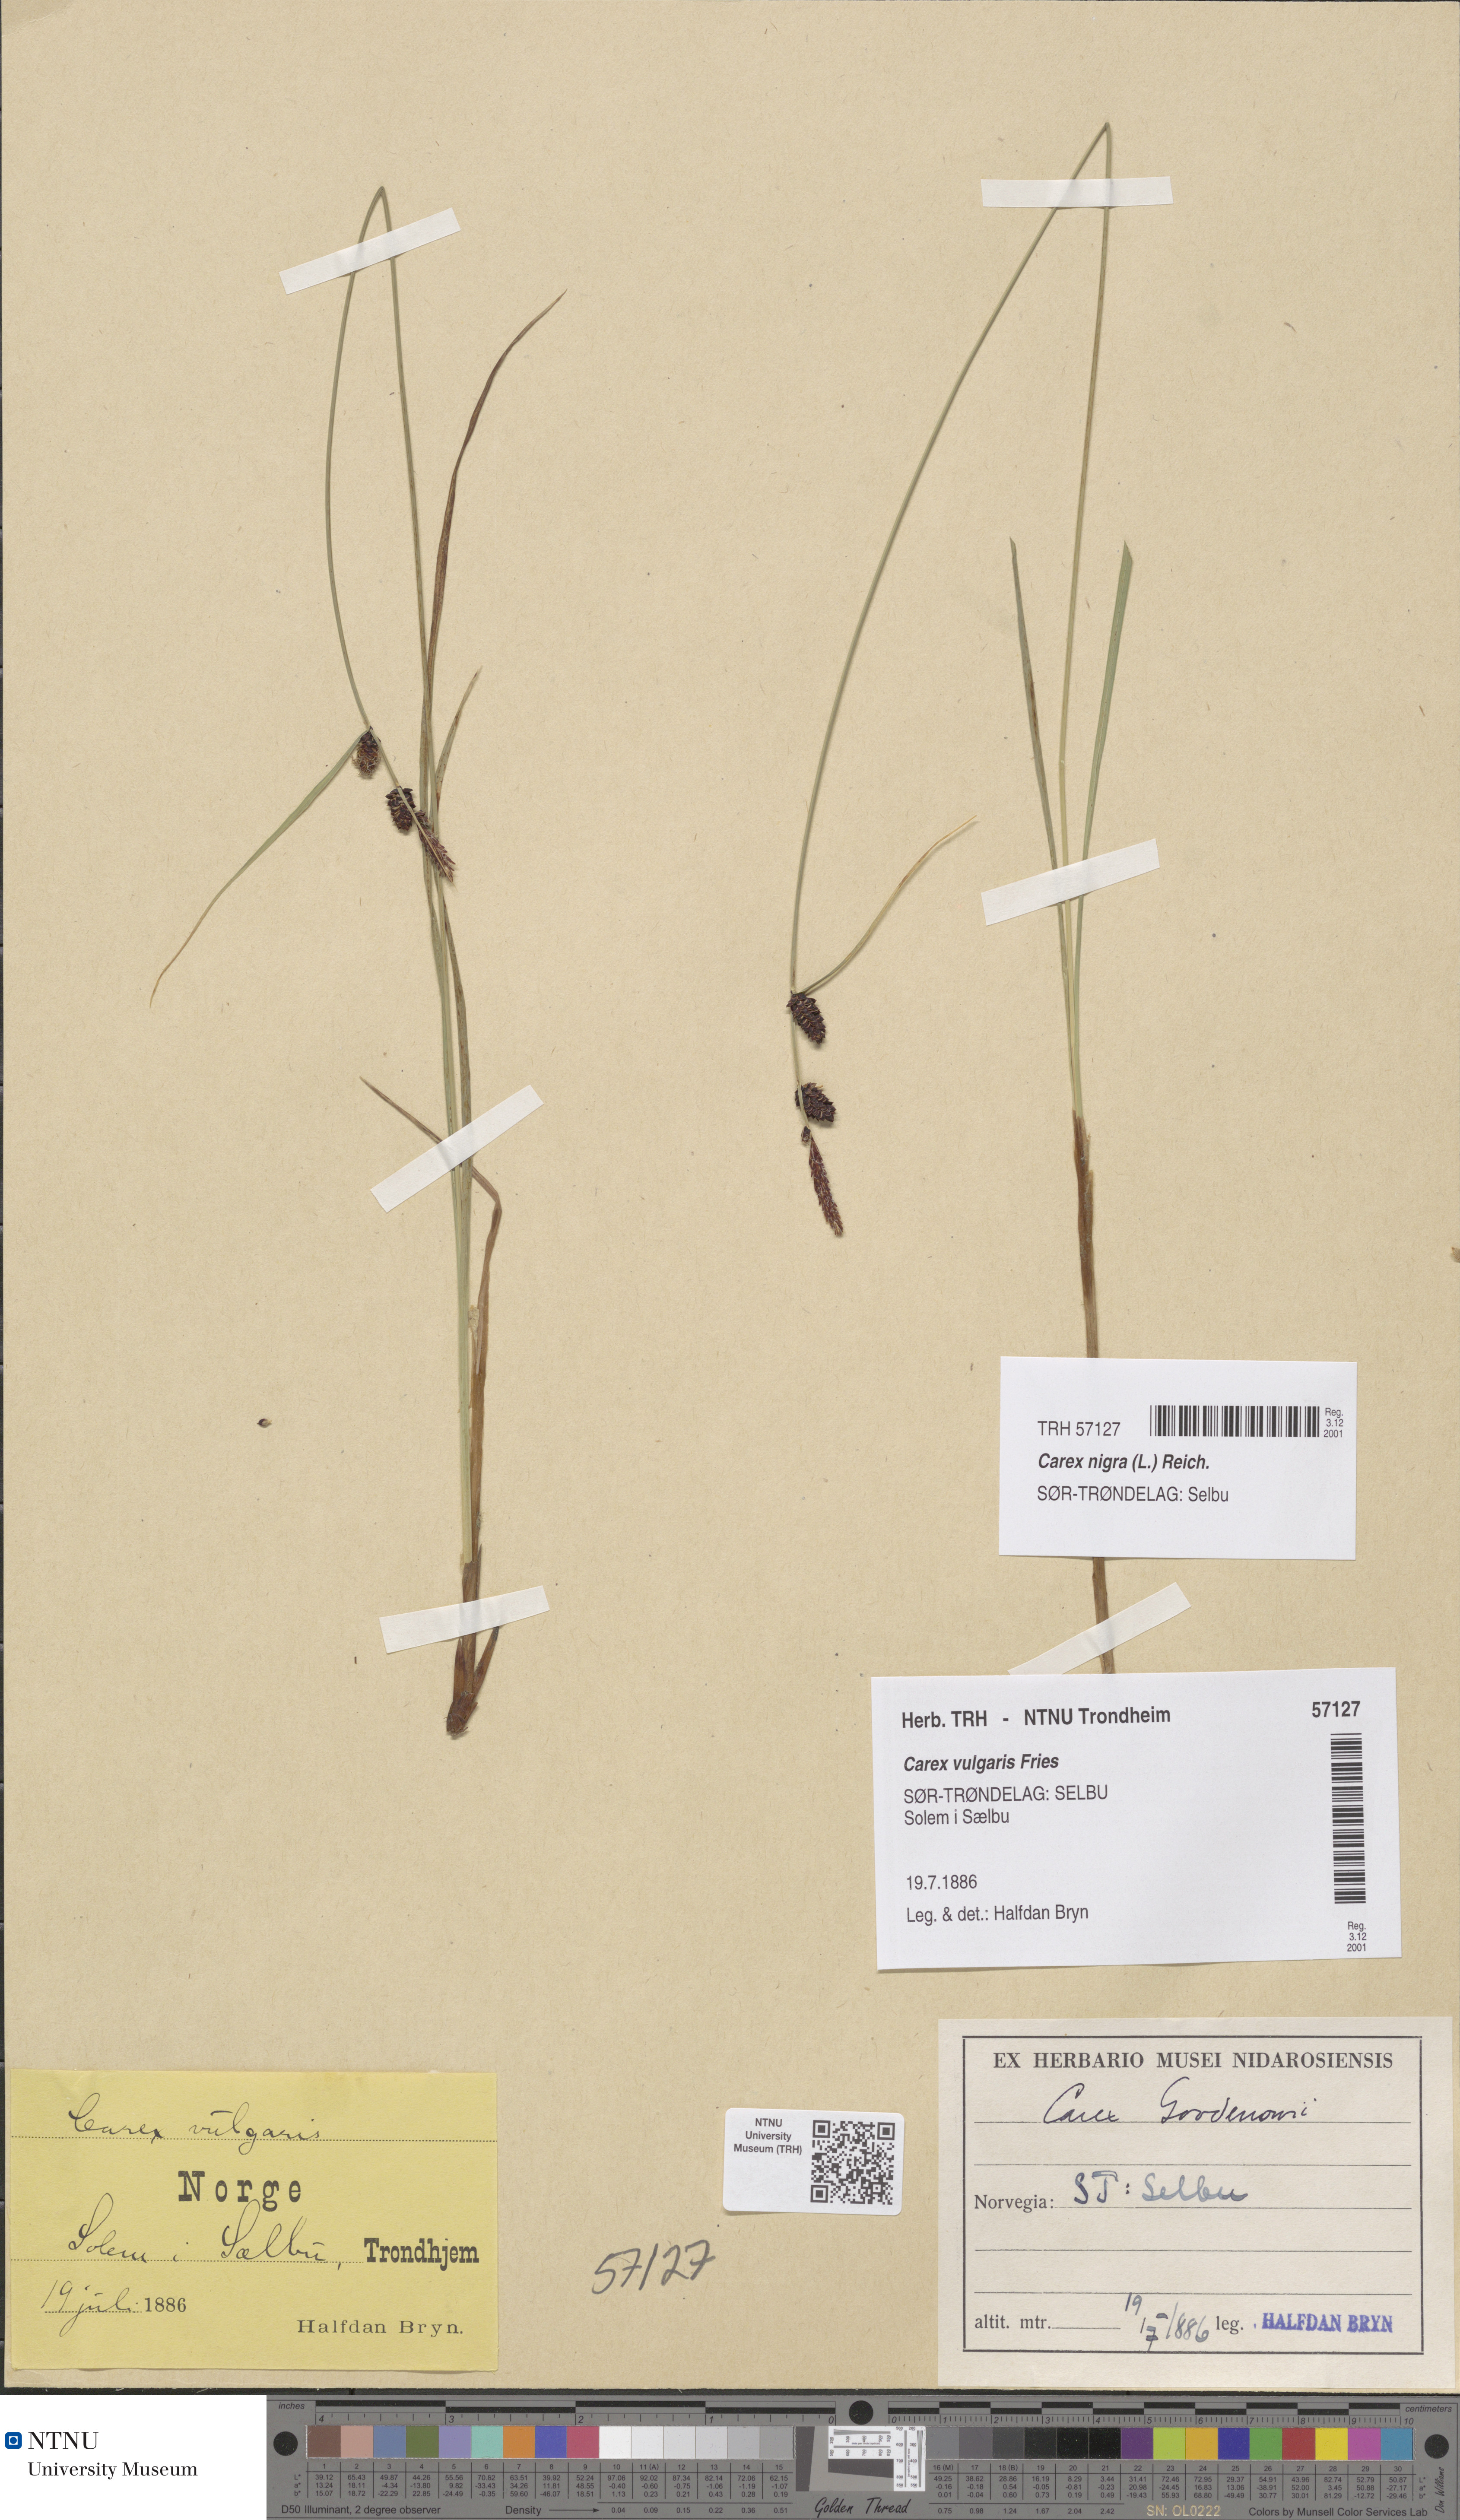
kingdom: Plantae
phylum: Tracheophyta
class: Liliopsida
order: Poales
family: Cyperaceae
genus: Carex
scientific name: Carex nigra
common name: Common sedge
